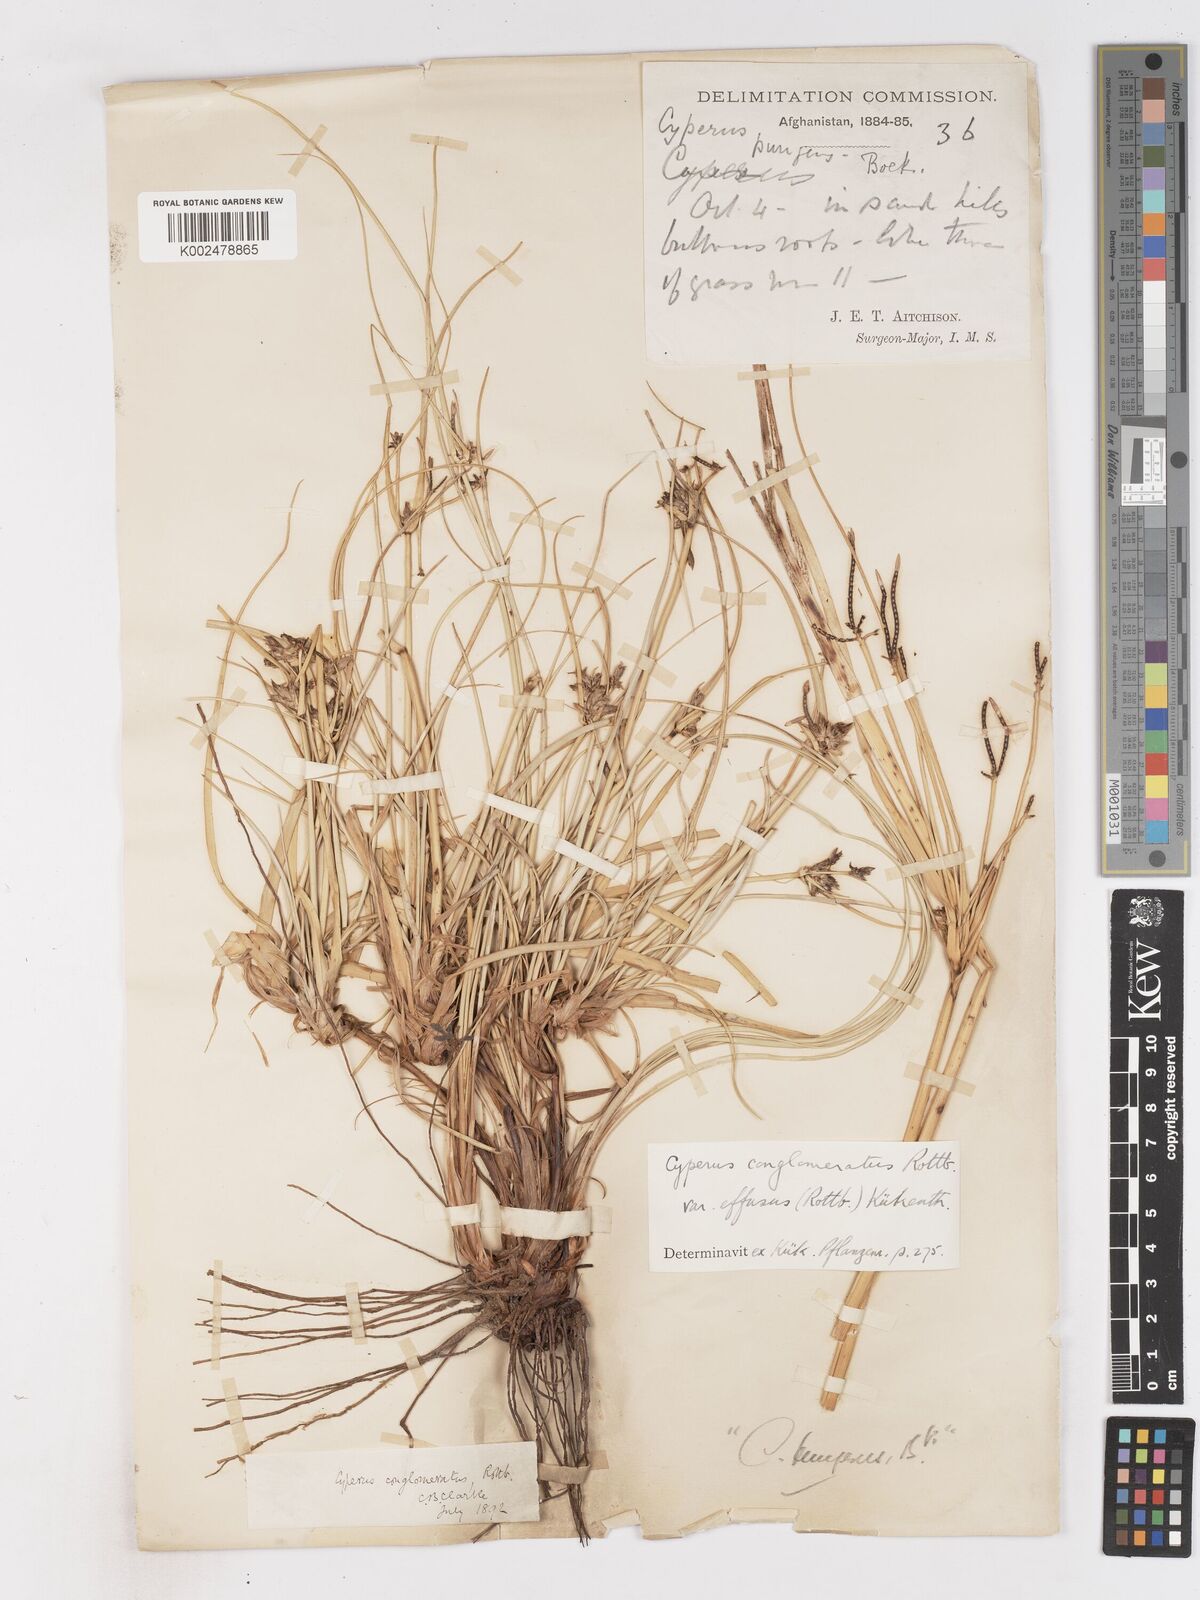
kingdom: Plantae
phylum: Tracheophyta
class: Liliopsida
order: Poales
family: Cyperaceae
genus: Cyperus
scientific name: Cyperus aucheri
